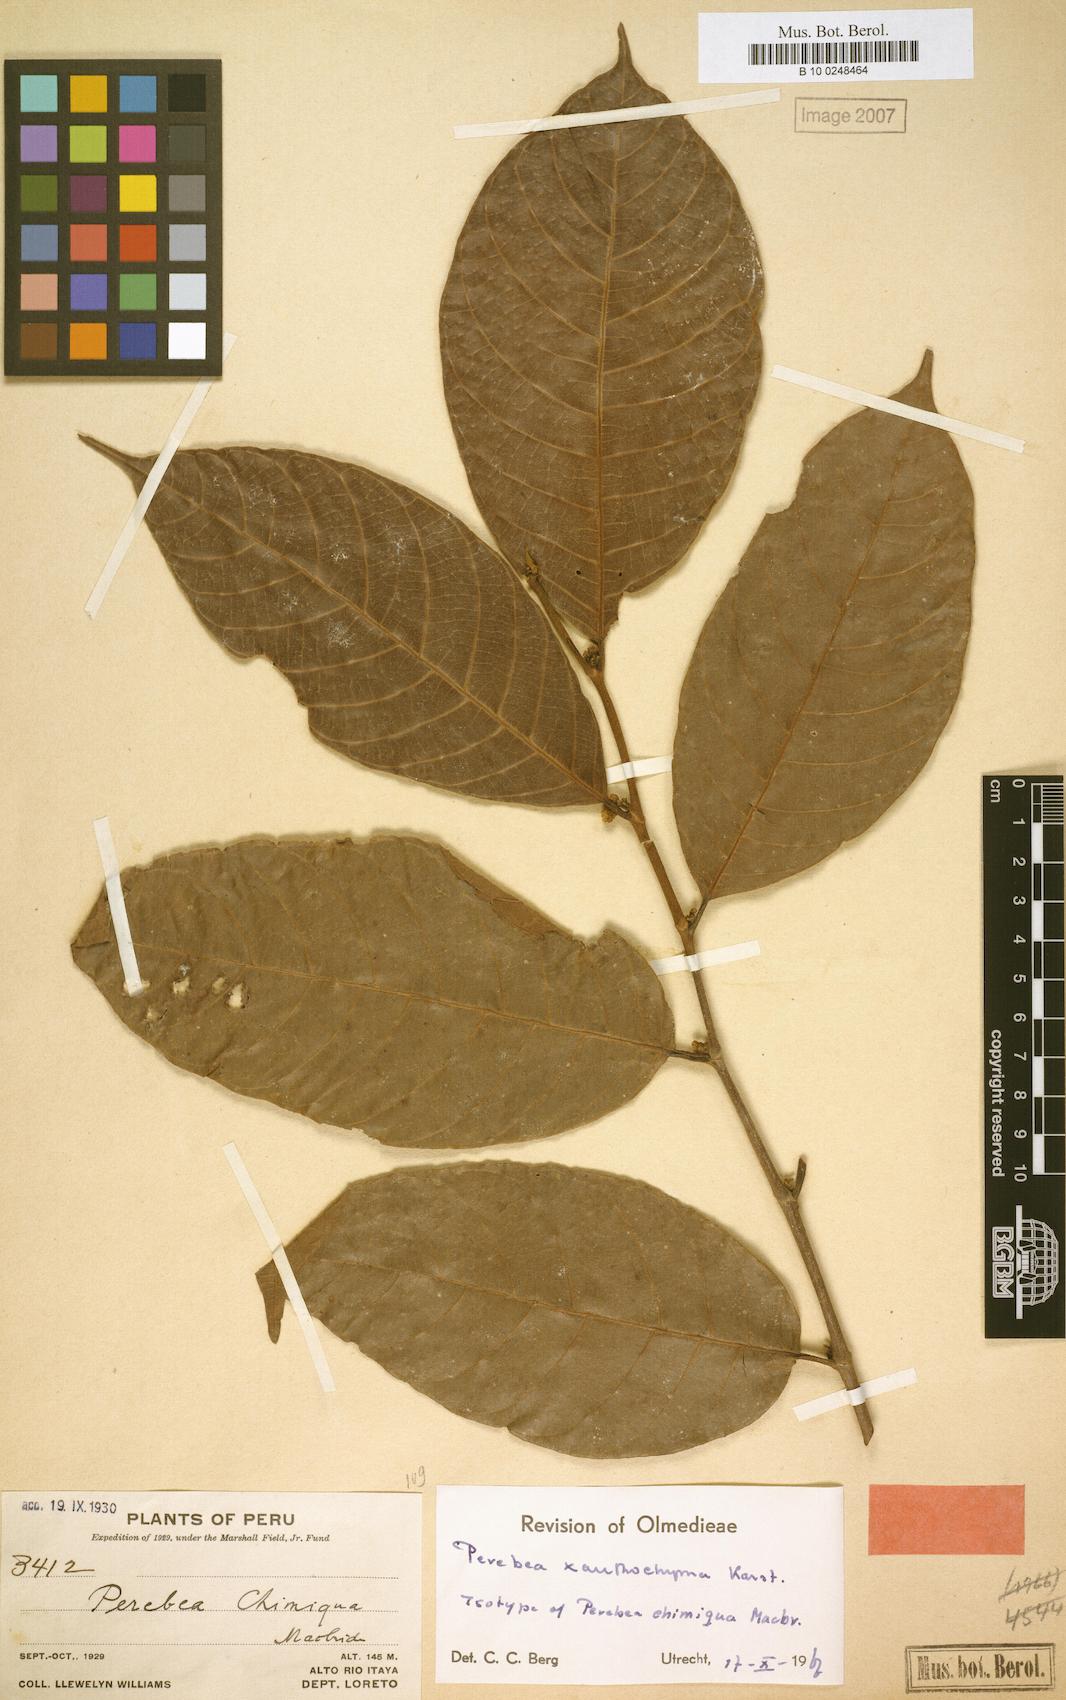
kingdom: Plantae
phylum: Tracheophyta
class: Magnoliopsida
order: Rosales
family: Moraceae
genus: Perebea
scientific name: Perebea xanthochyma
